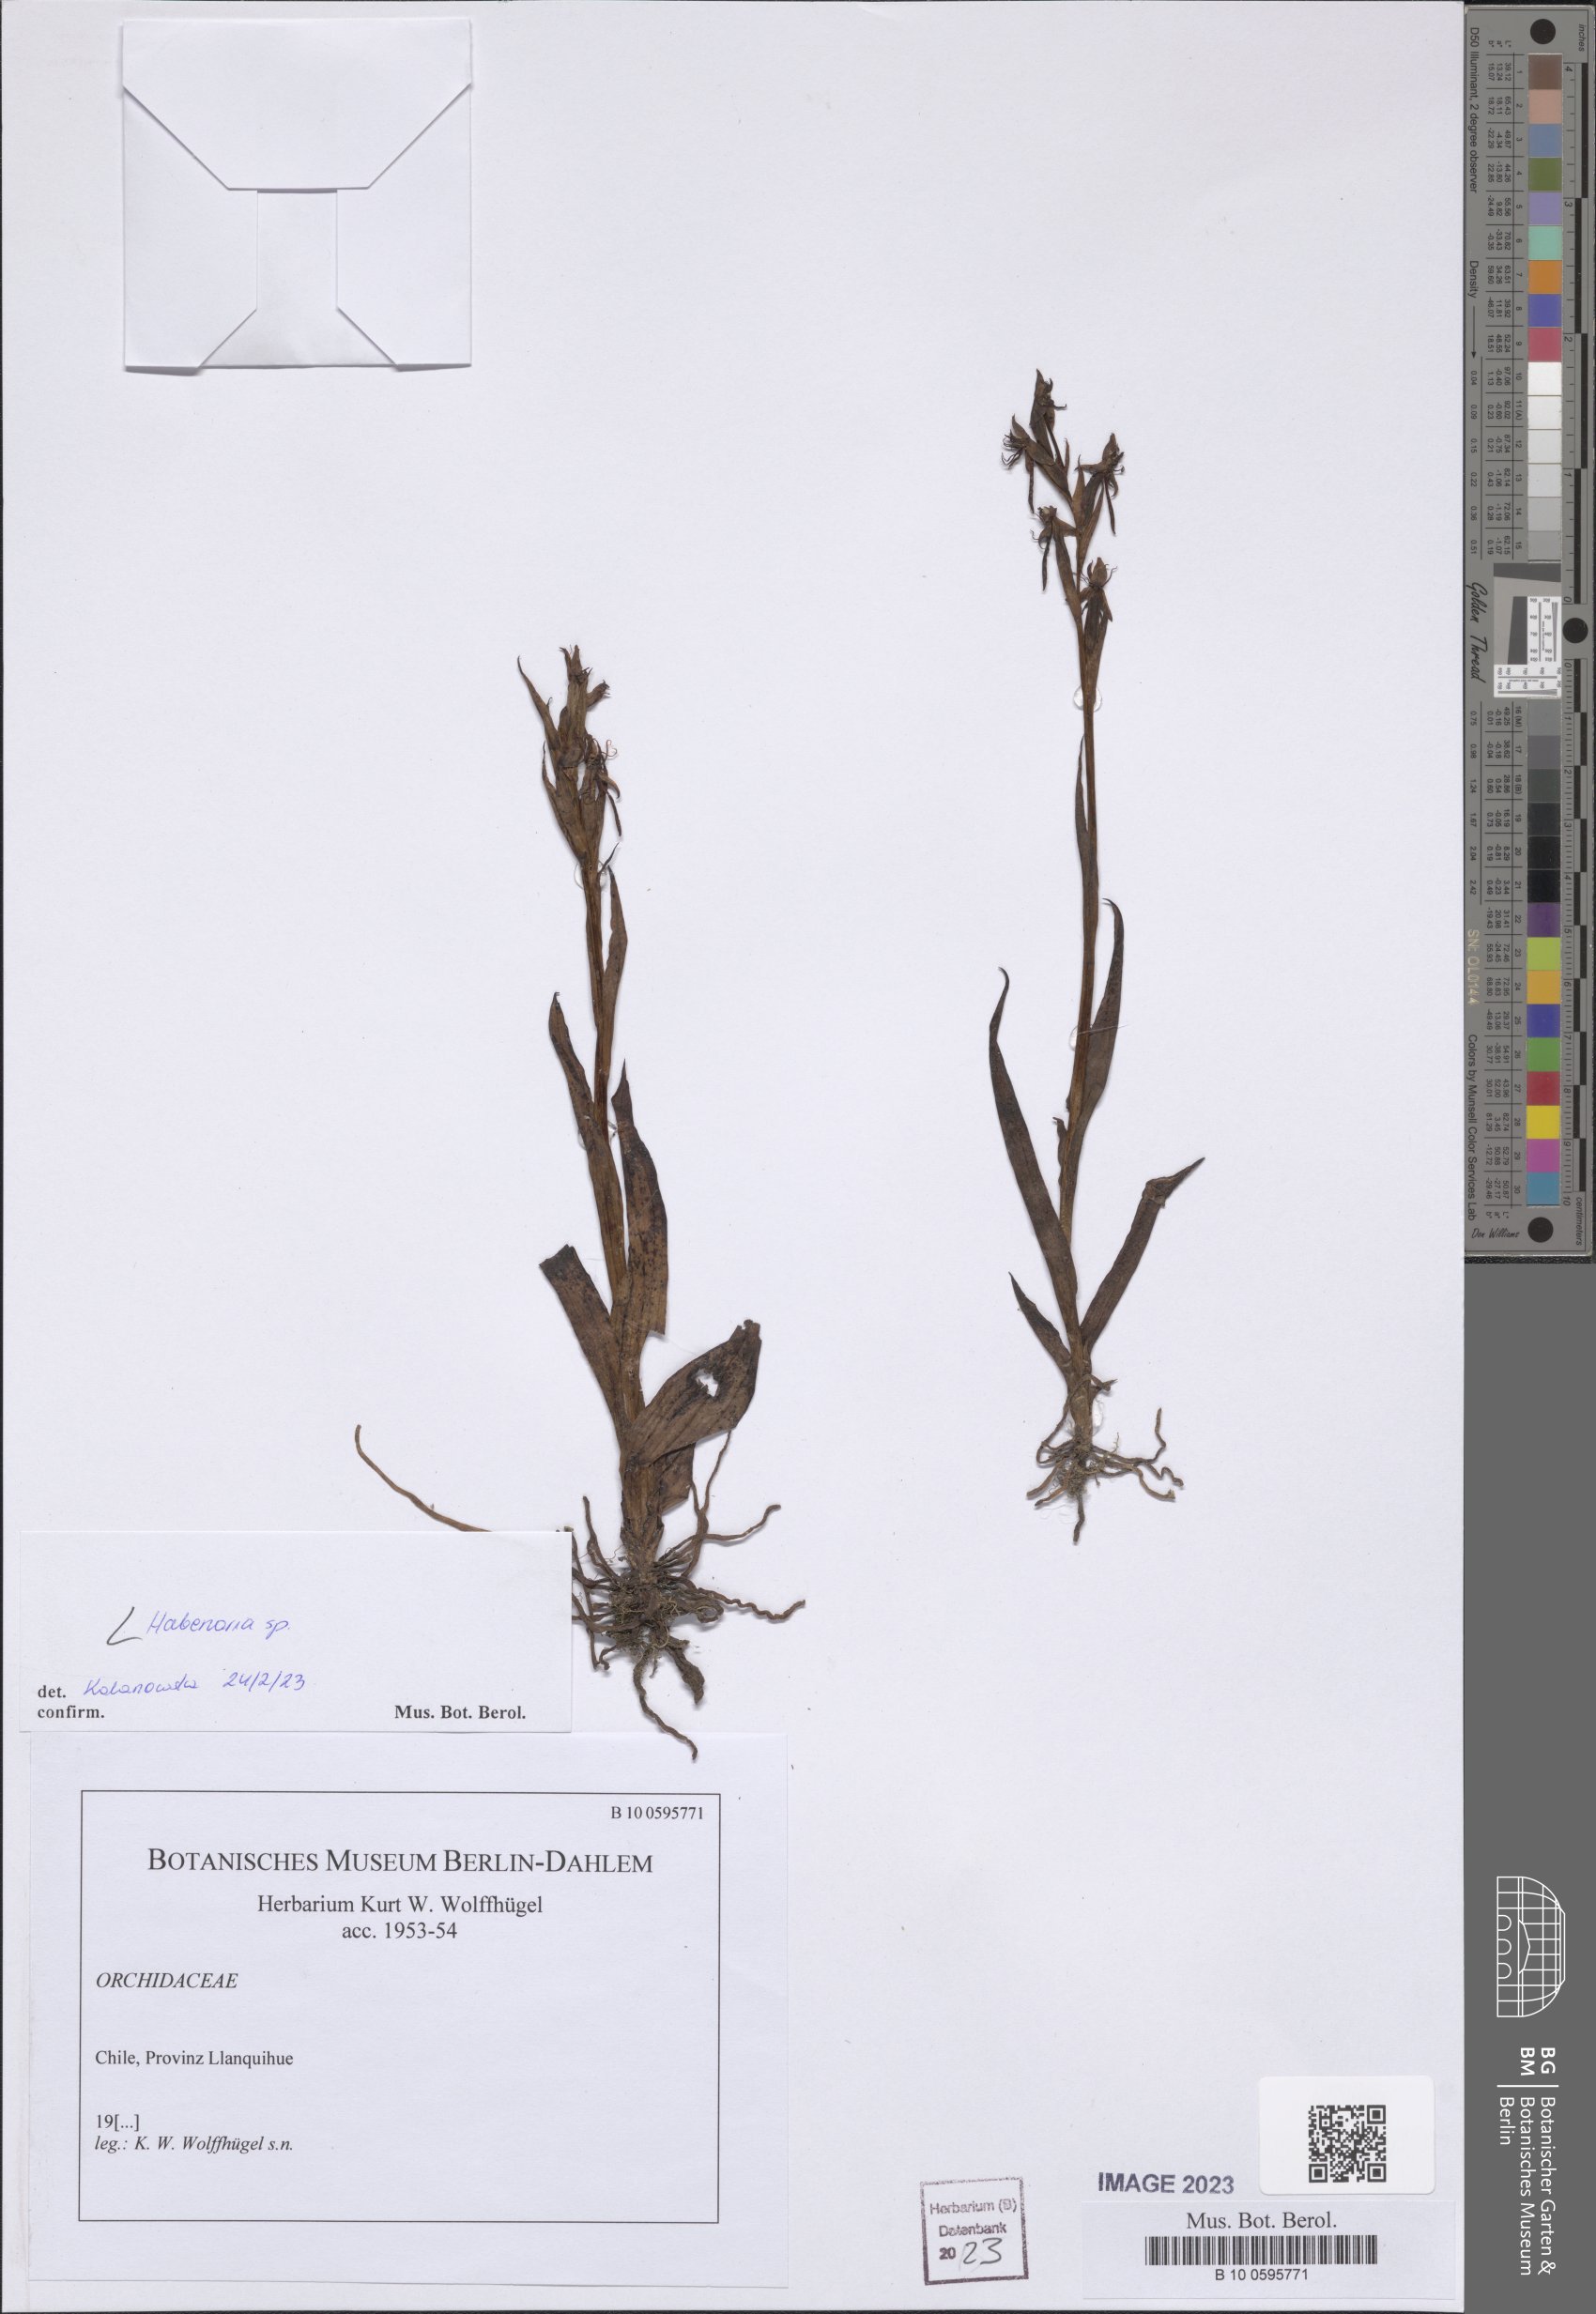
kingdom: Plantae
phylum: Tracheophyta
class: Liliopsida
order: Asparagales
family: Orchidaceae
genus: Habenaria
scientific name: Habenaria
